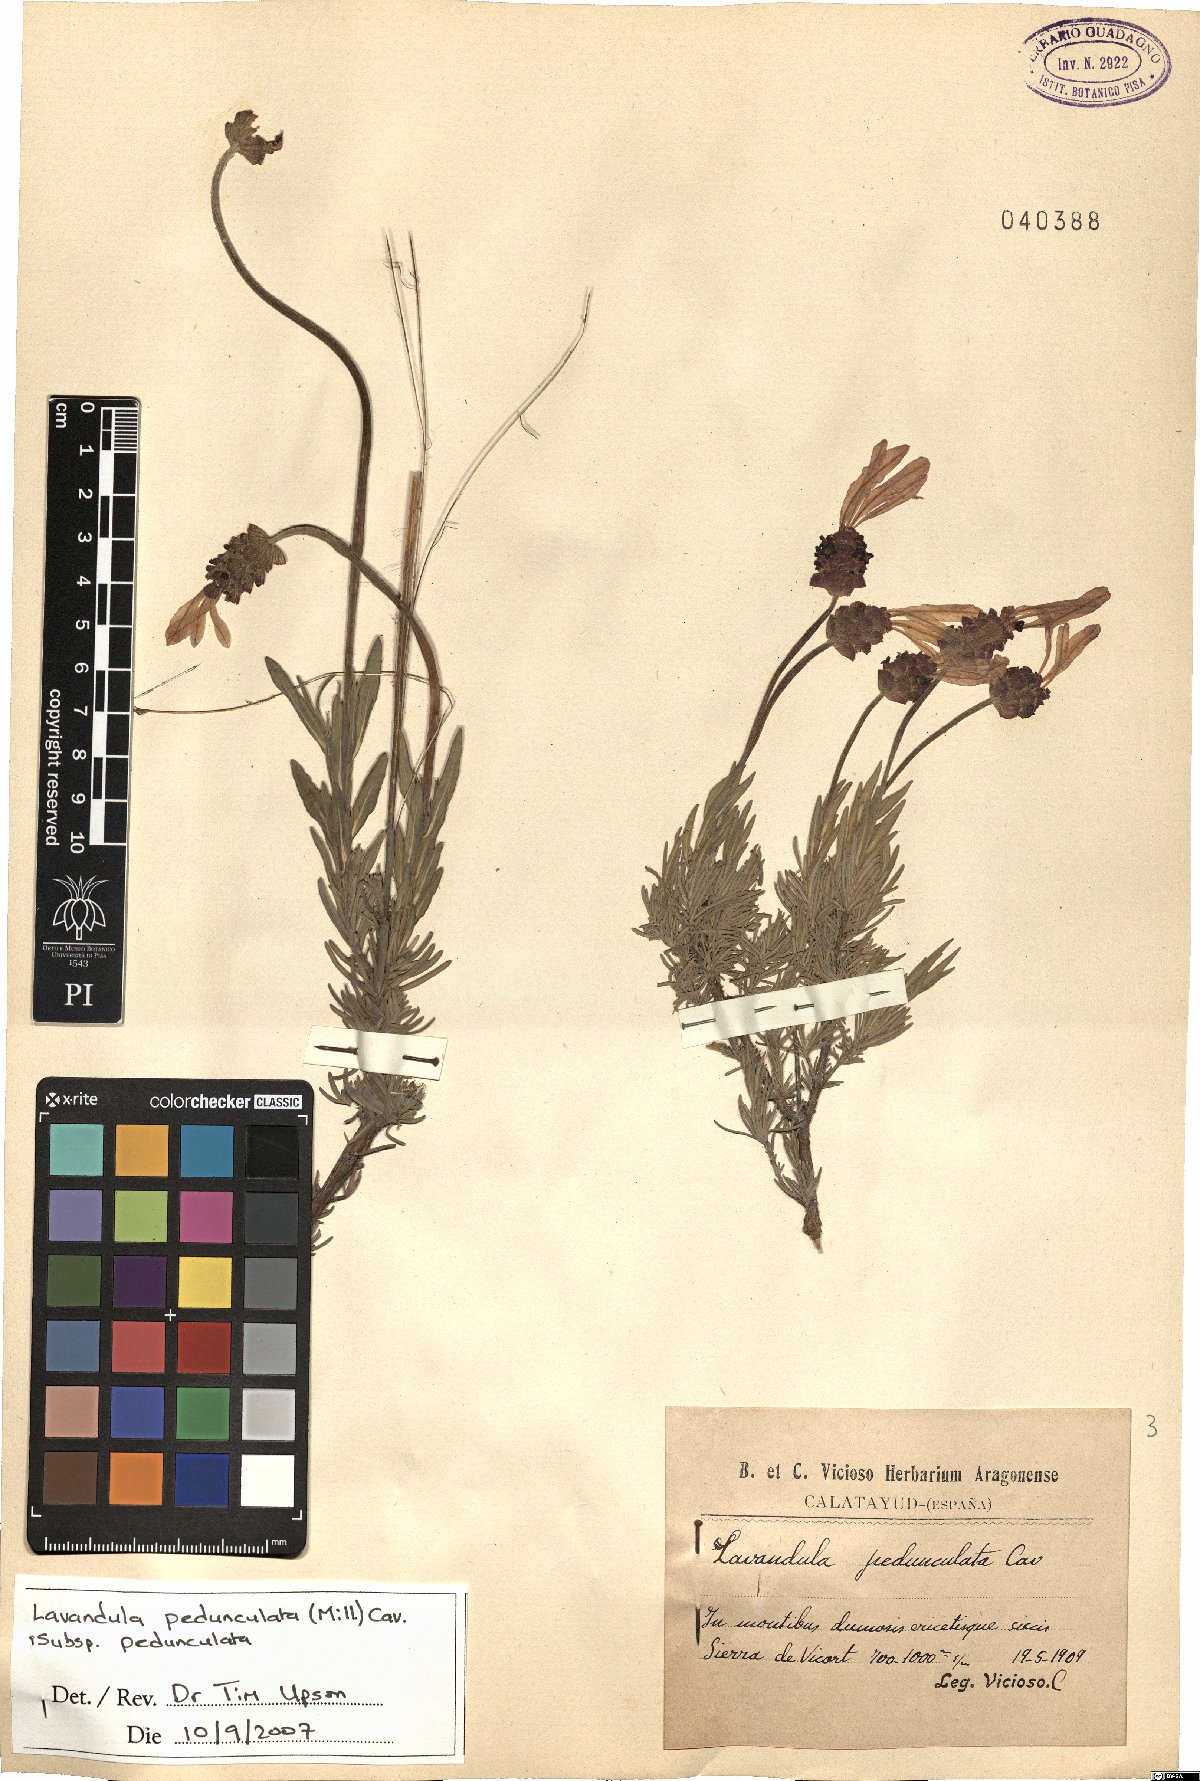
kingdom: Plantae
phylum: Tracheophyta
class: Magnoliopsida
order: Lamiales
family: Lamiaceae
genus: Lavandula
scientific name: Lavandula pedunculata
